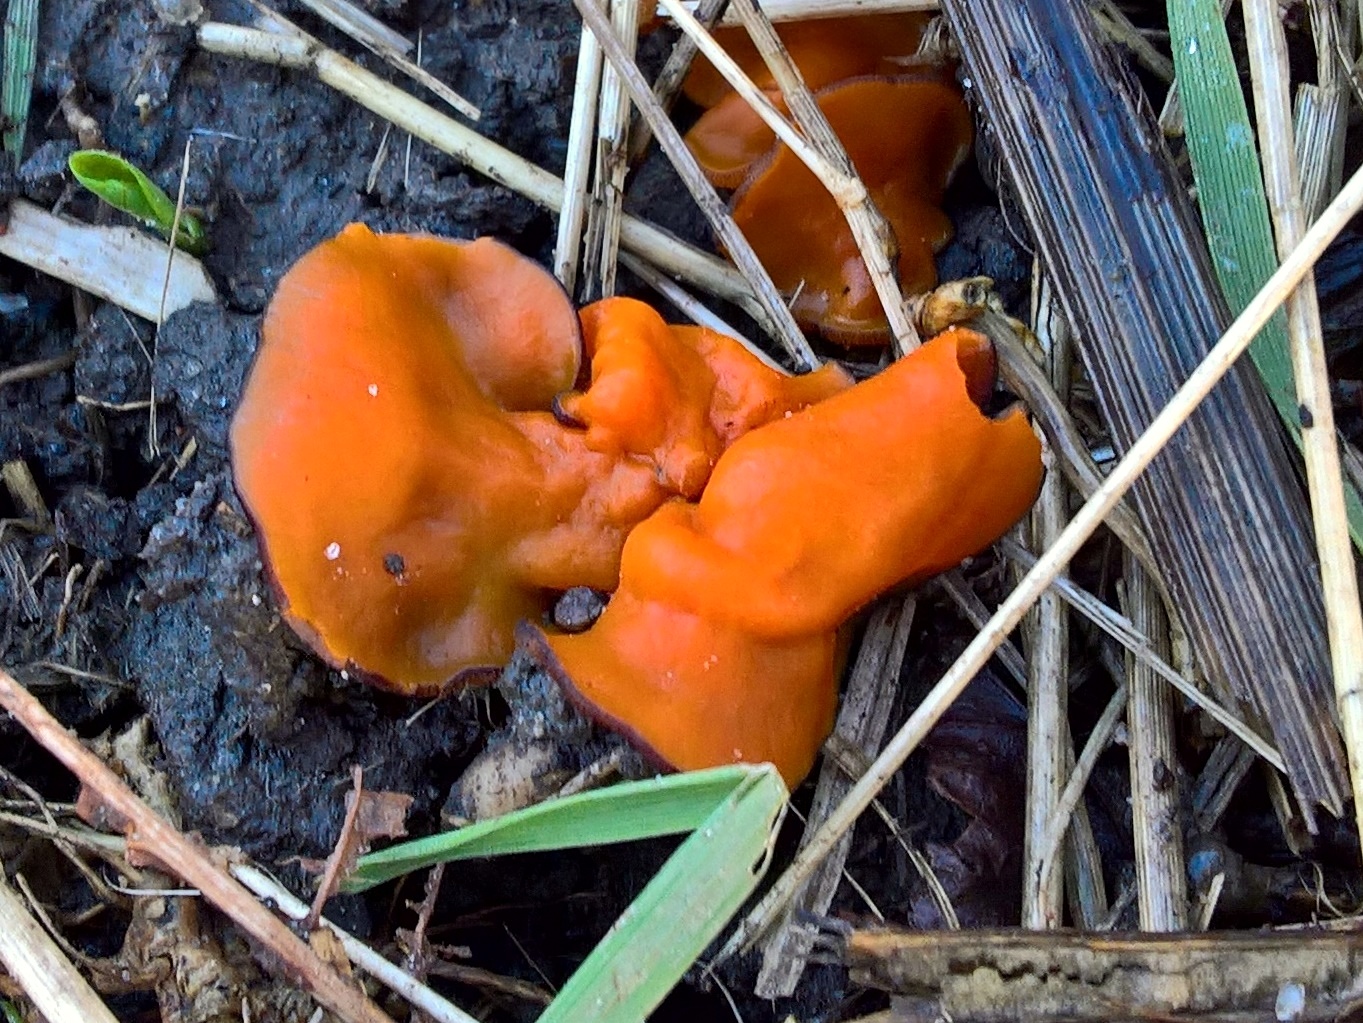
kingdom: Fungi
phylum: Ascomycota
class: Pezizomycetes
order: Pezizales
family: Pyronemataceae
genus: Melastiza
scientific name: Melastiza cornubiensis
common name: mørkrandet rødbæger
